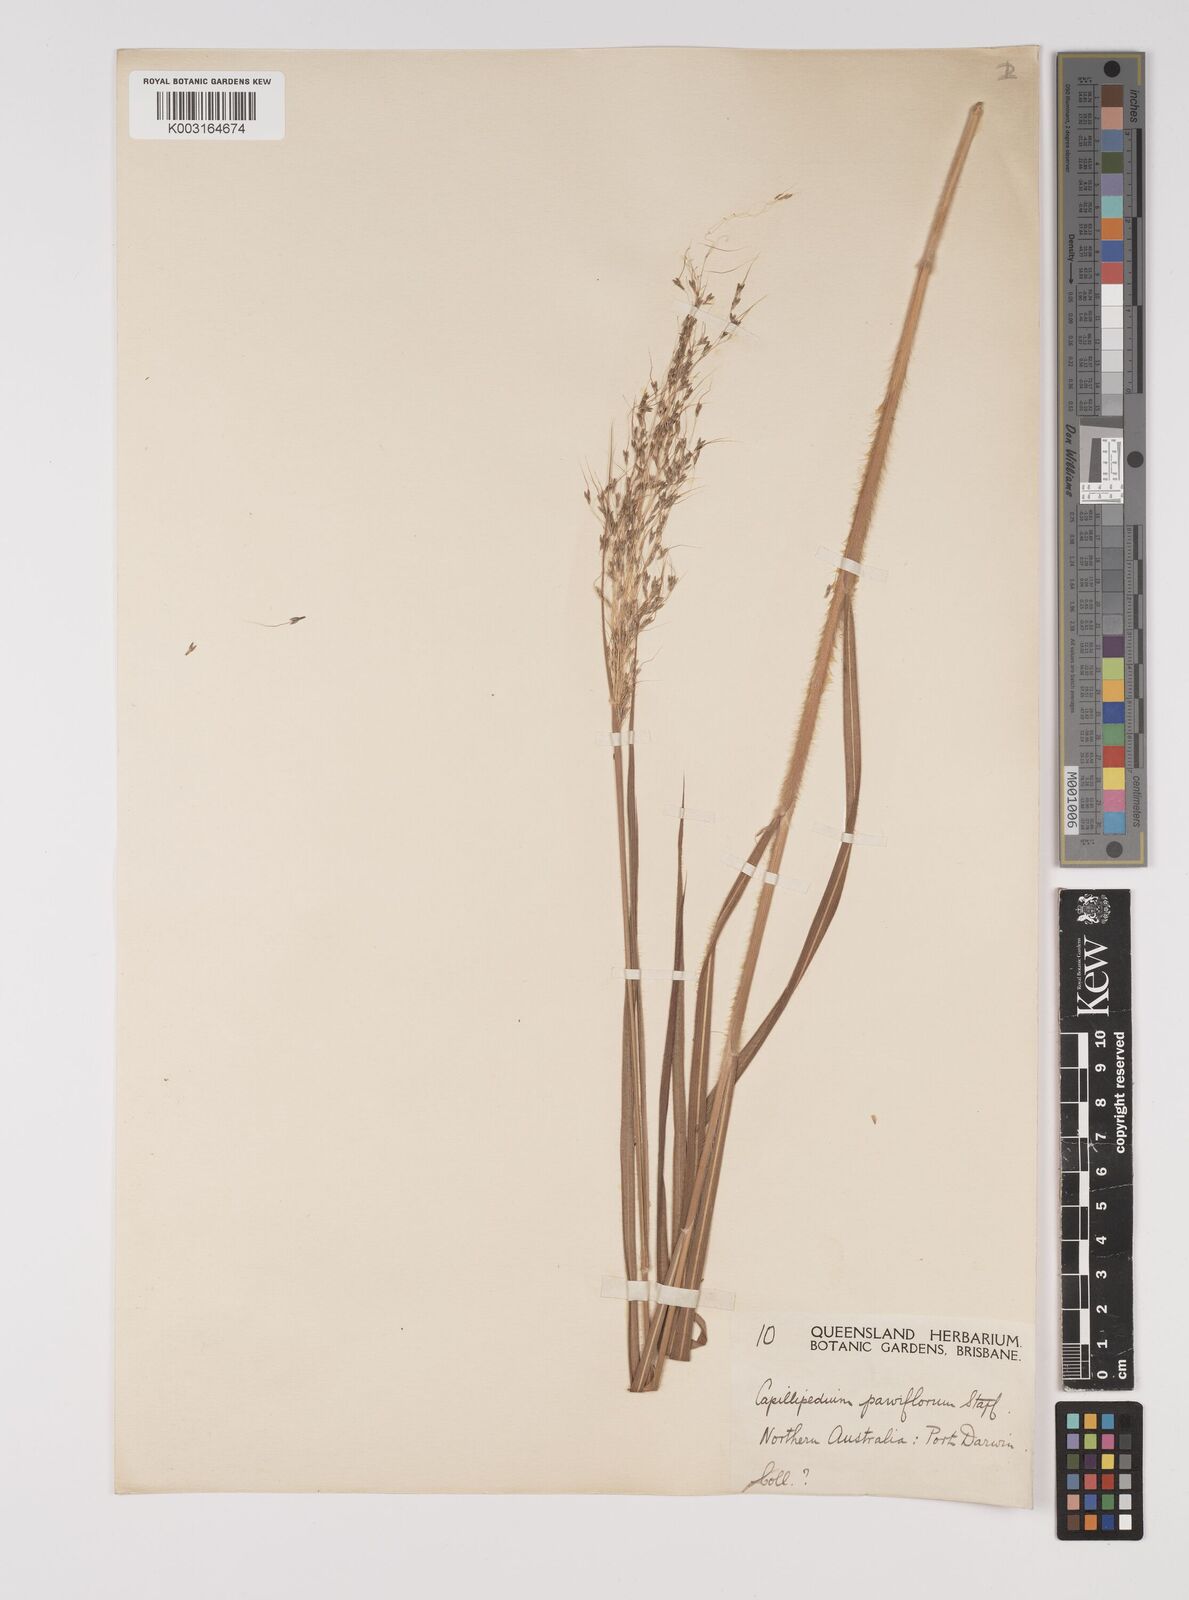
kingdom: Plantae
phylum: Tracheophyta
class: Liliopsida
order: Poales
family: Poaceae
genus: Capillipedium
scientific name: Capillipedium parviflorum
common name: Golden-beard
